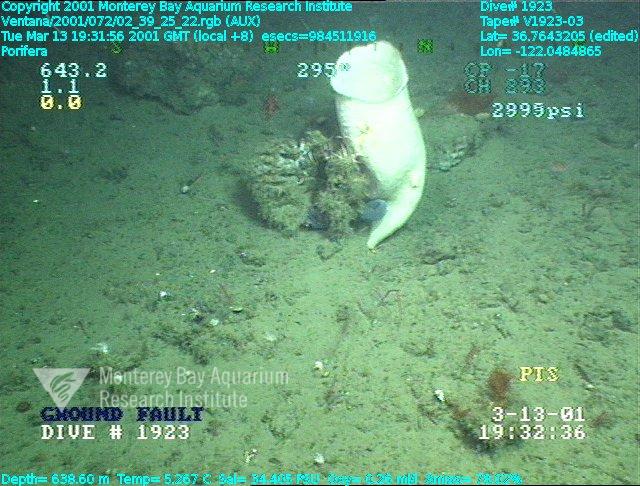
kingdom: Animalia
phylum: Porifera
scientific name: Porifera
